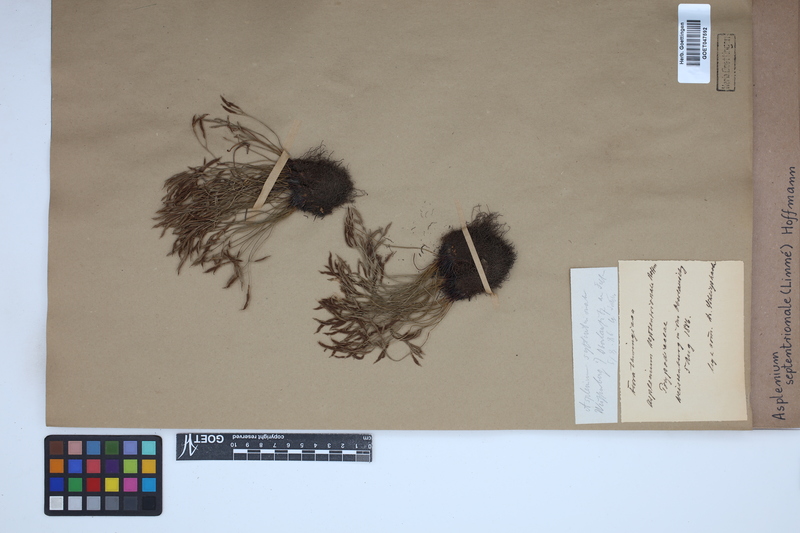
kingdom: Plantae
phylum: Tracheophyta
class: Polypodiopsida
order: Polypodiales
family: Aspleniaceae
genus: Asplenium
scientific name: Asplenium septentrionale
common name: Forked spleenwort
